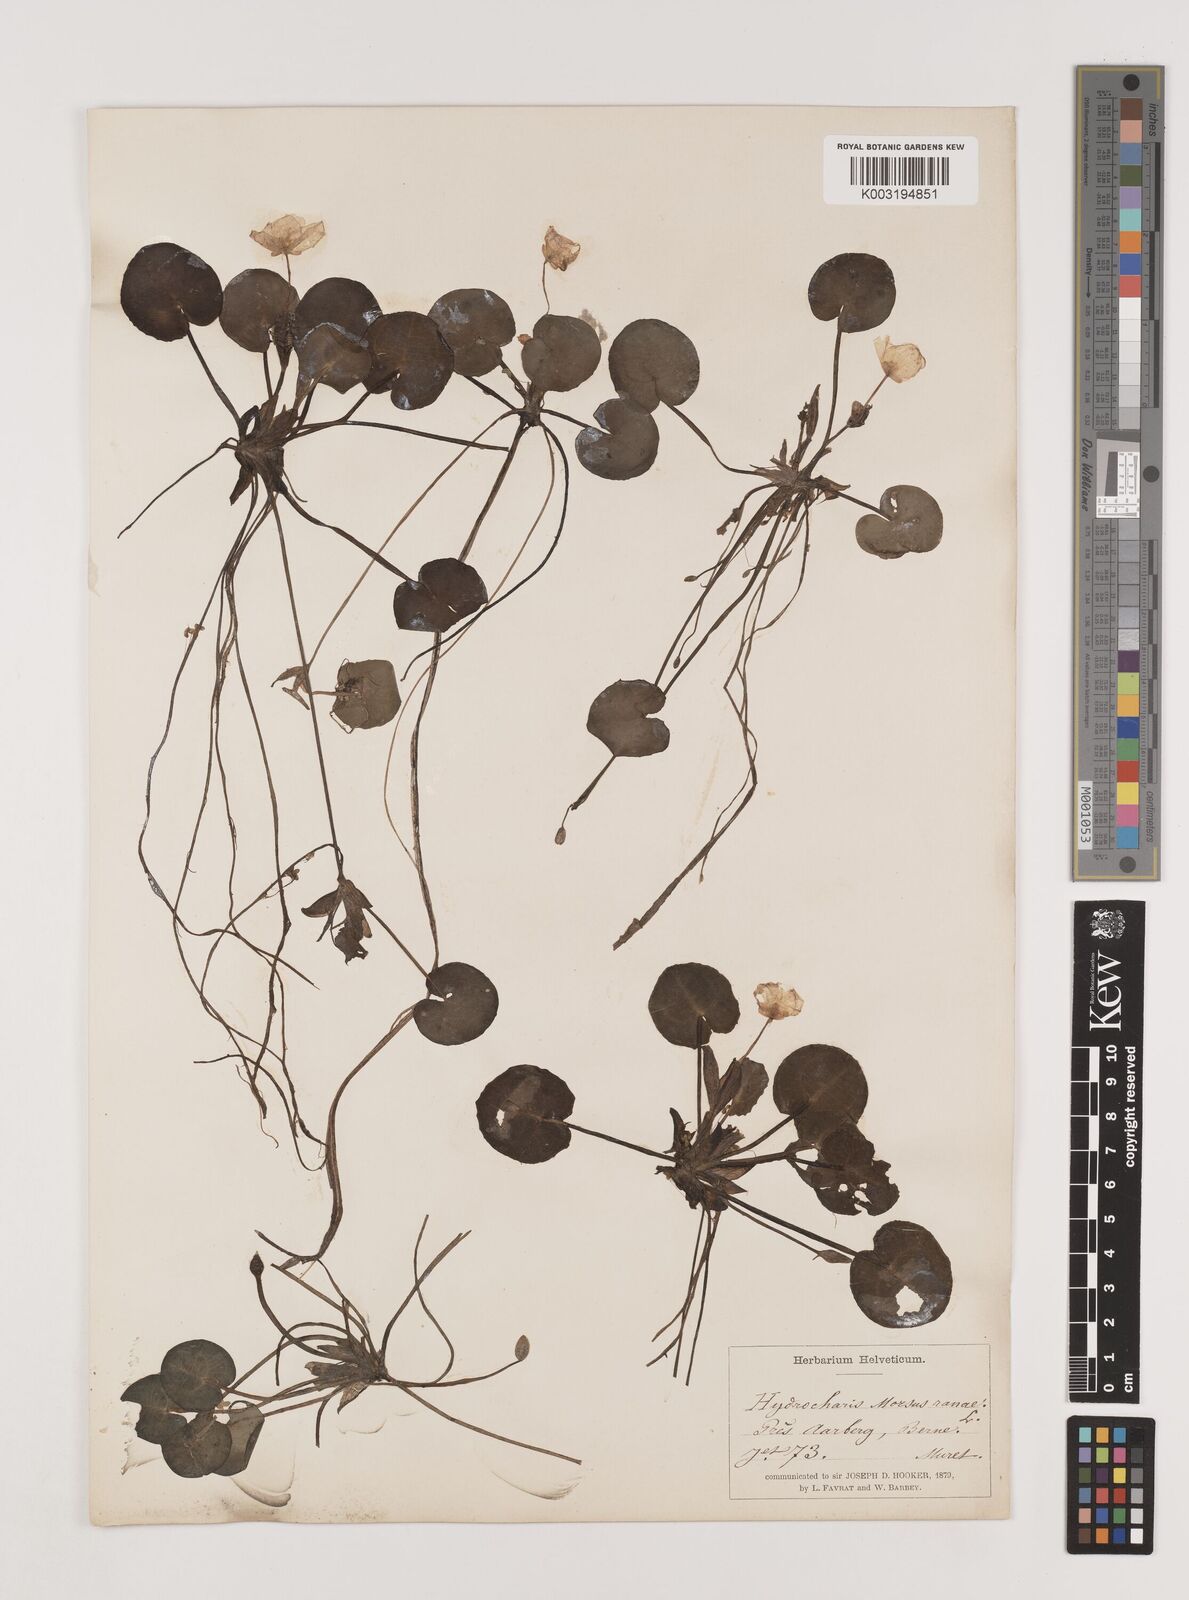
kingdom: Plantae
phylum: Tracheophyta
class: Liliopsida
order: Alismatales
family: Hydrocharitaceae
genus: Hydrocharis
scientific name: Hydrocharis morsus-ranae
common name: Frogbit
